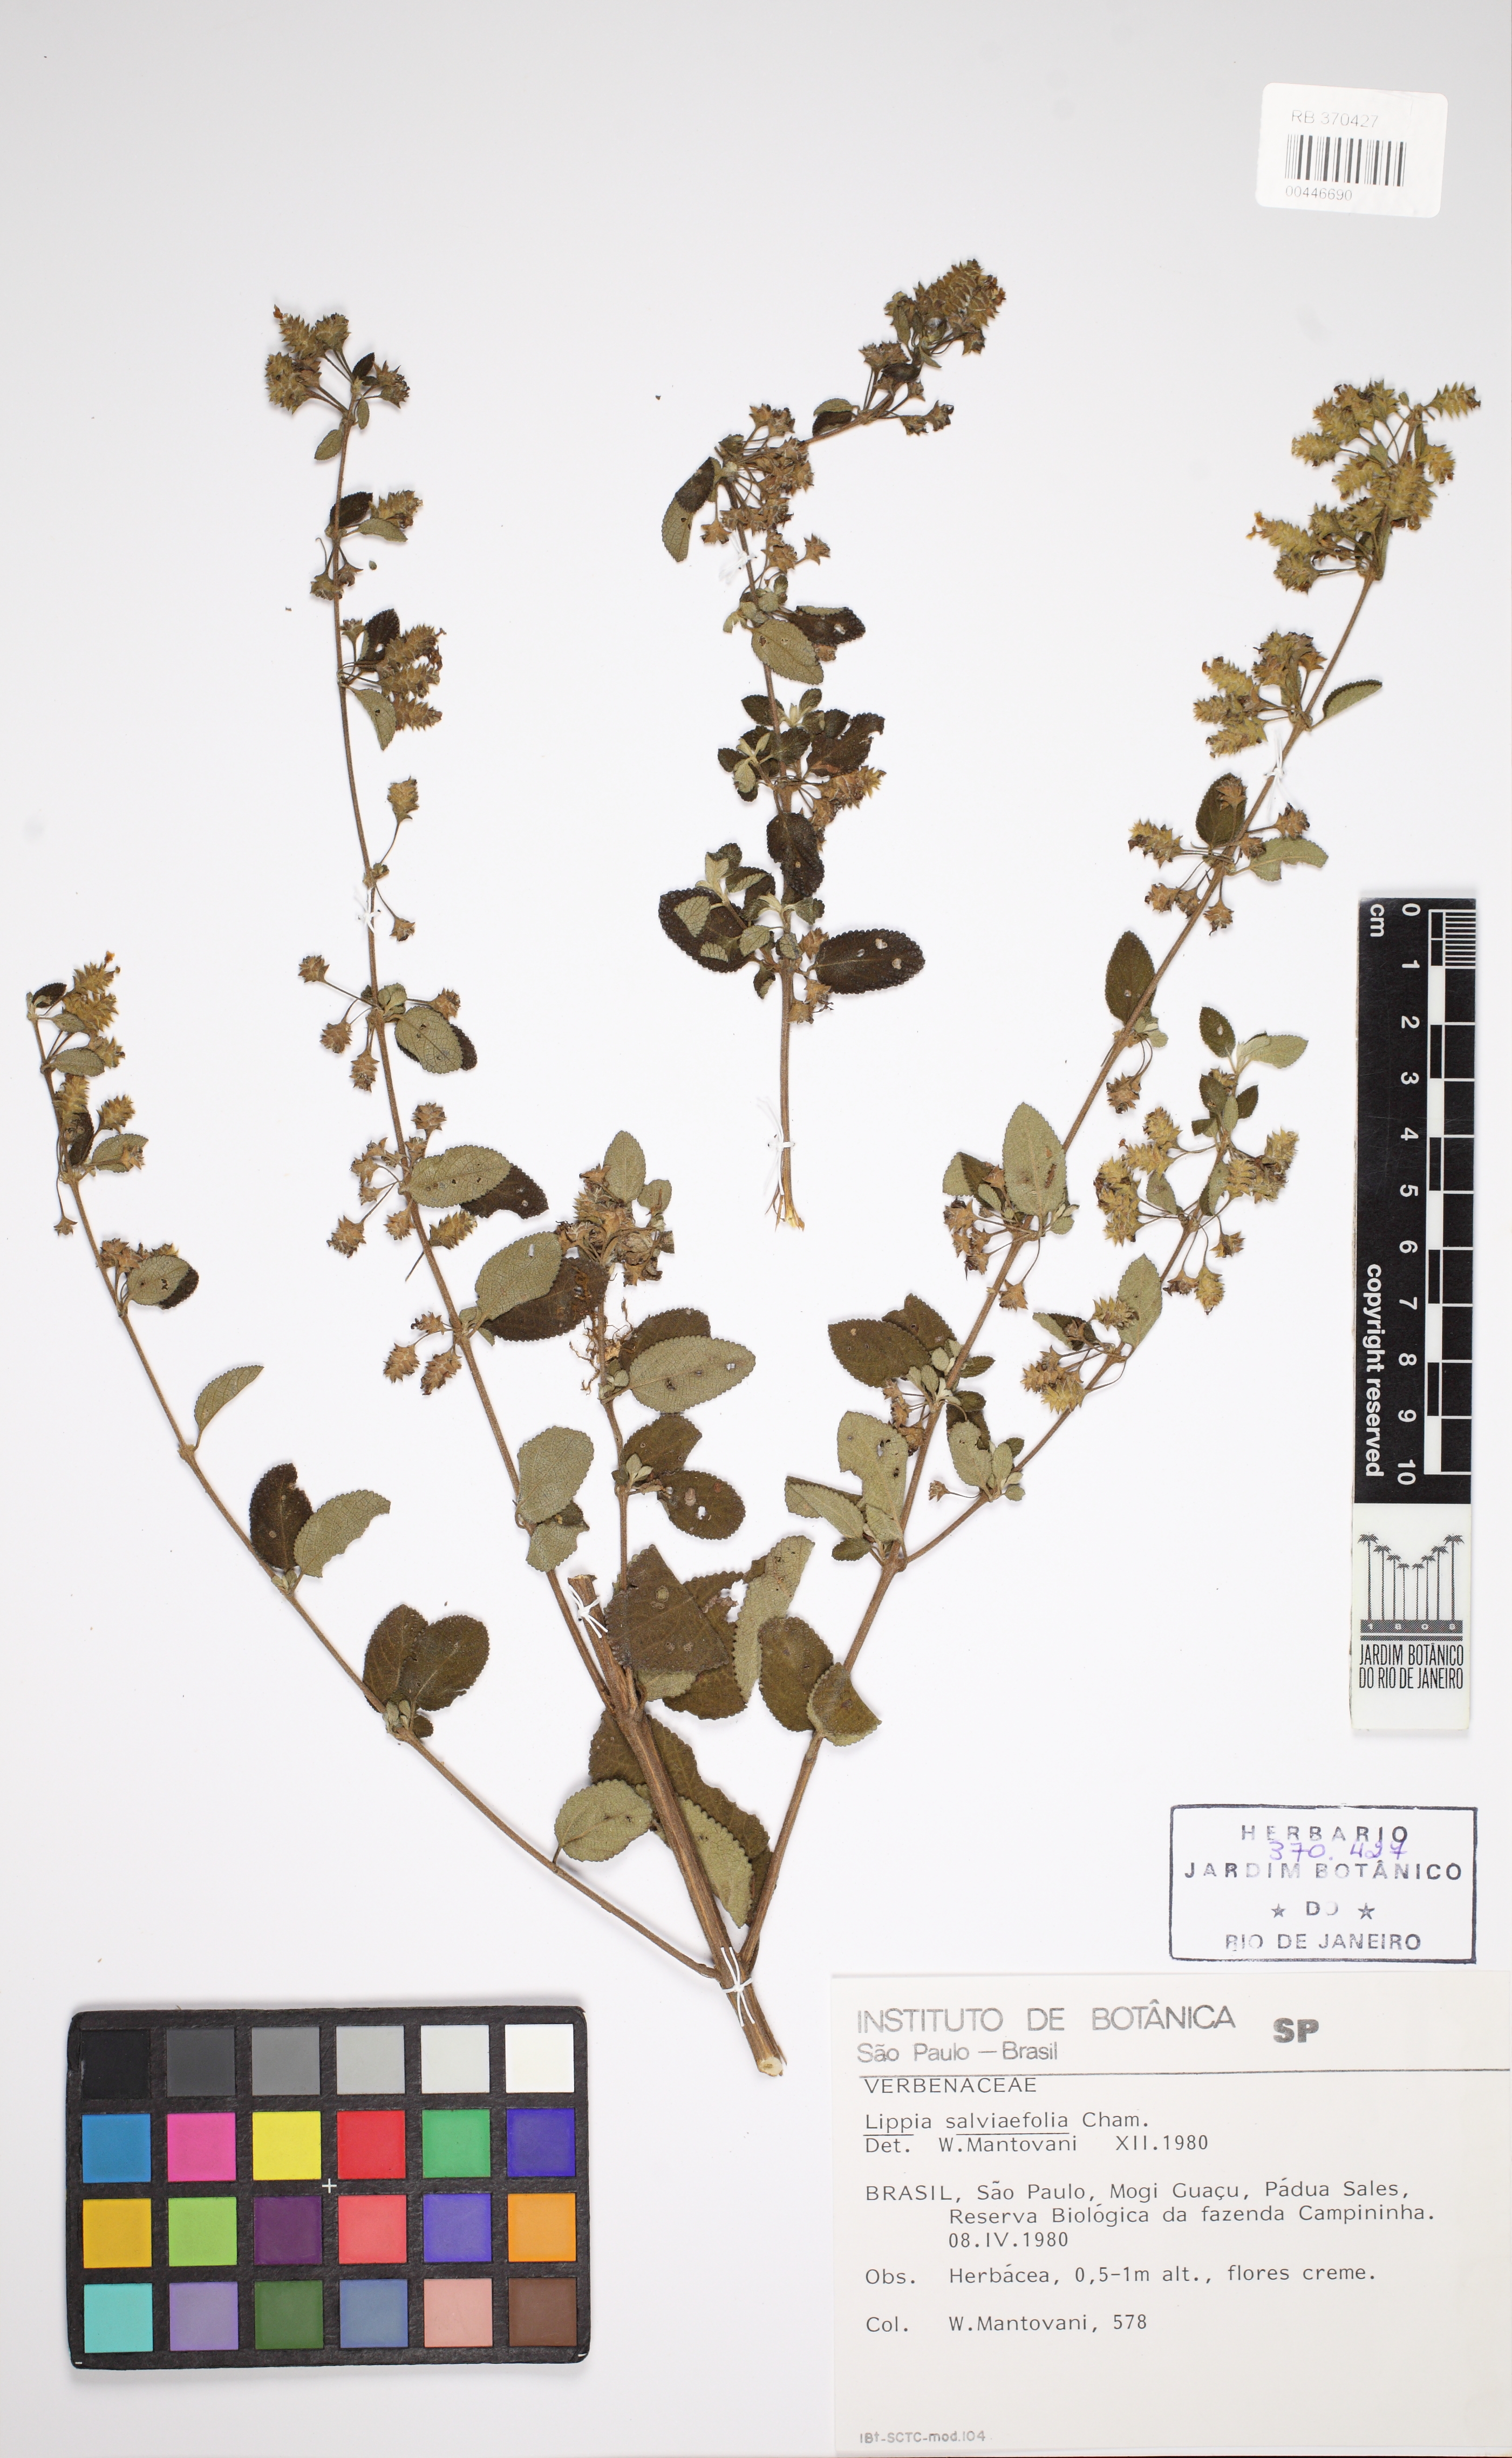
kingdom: Plantae
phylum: Tracheophyta
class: Magnoliopsida
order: Lamiales
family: Verbenaceae
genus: Lippia
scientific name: Lippia origanoides
